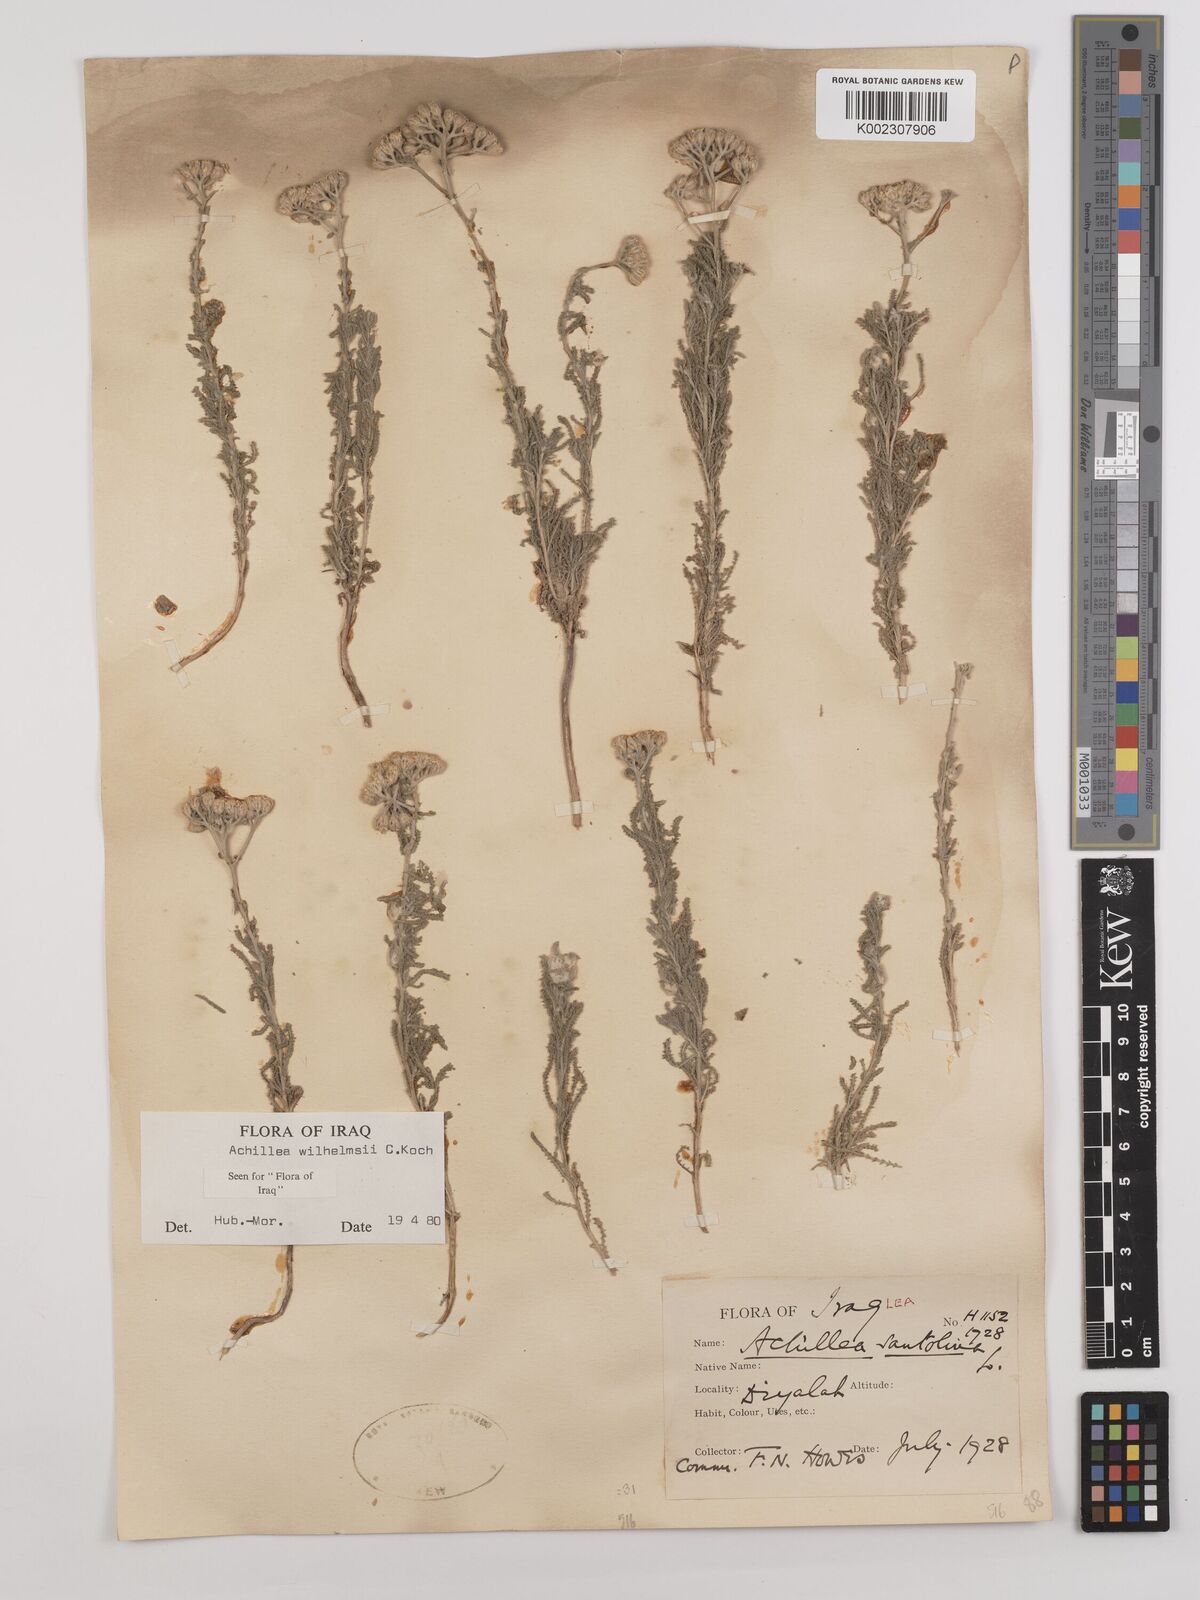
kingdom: Plantae
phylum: Tracheophyta
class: Magnoliopsida
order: Asterales
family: Asteraceae
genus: Achillea
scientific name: Achillea wilhelmsii
